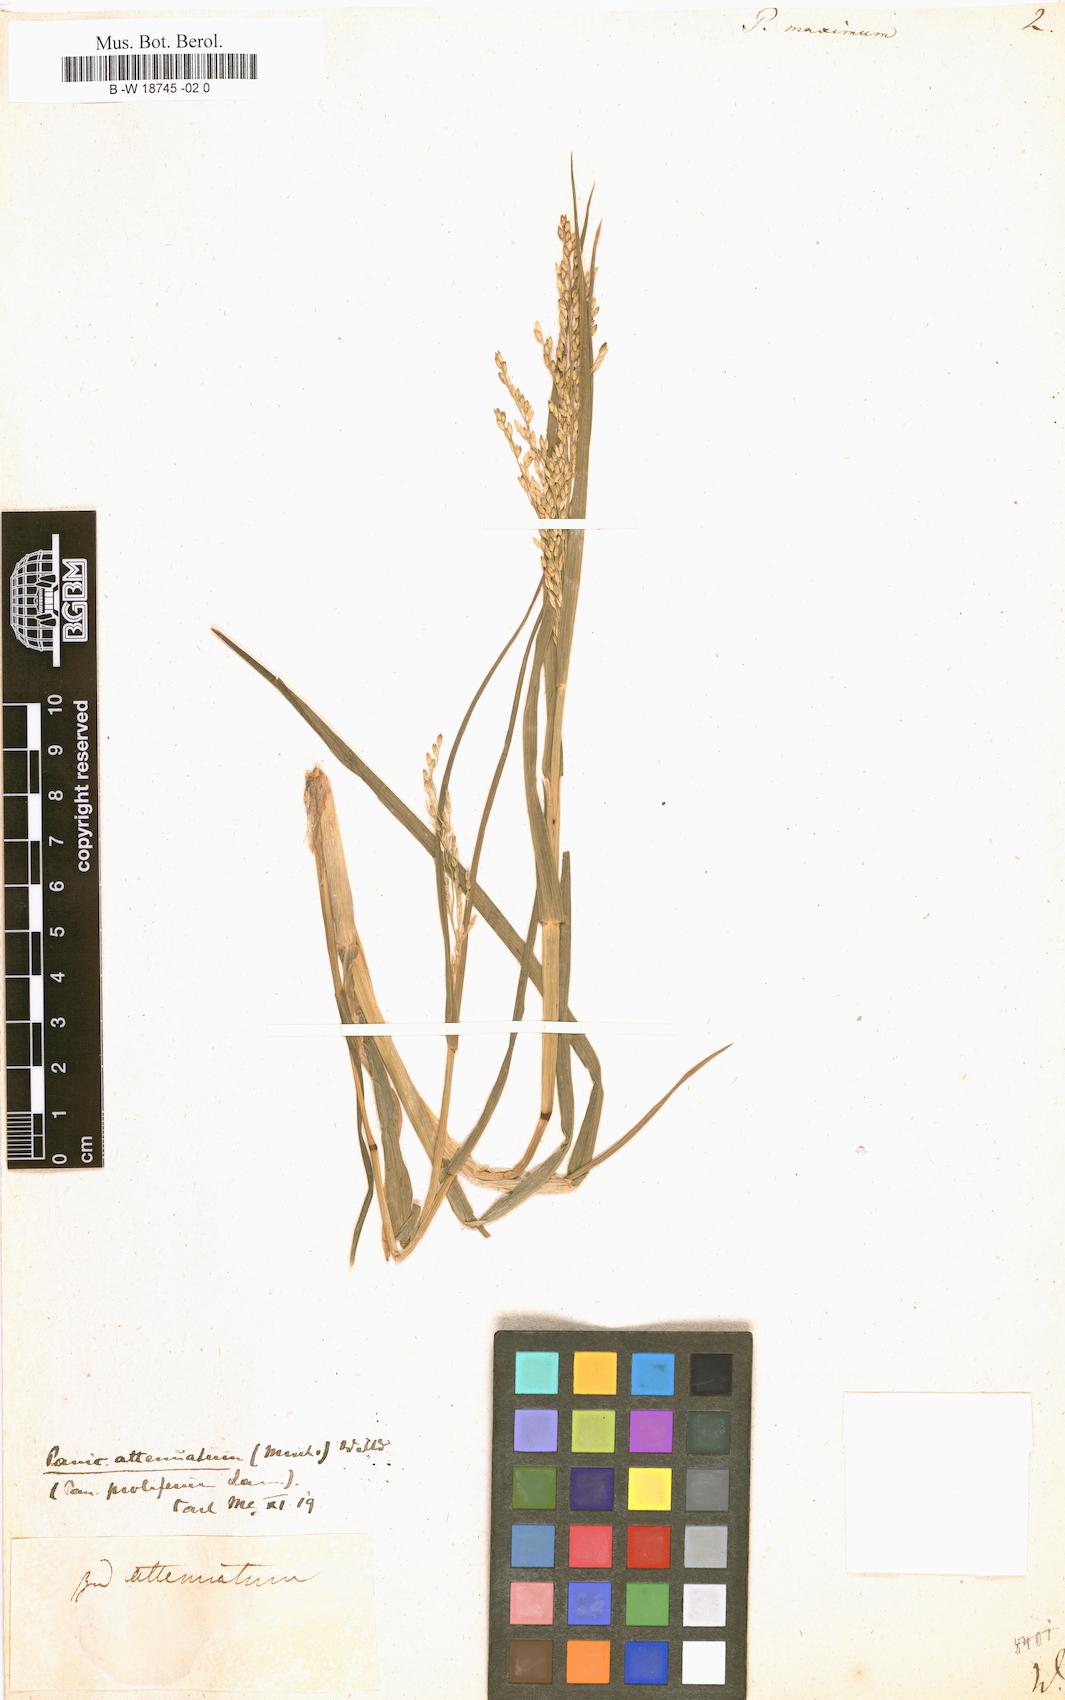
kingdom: Plantae
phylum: Tracheophyta
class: Liliopsida
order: Poales
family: Poaceae
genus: Megathyrsus
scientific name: Megathyrsus maximus
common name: Guineagrass
